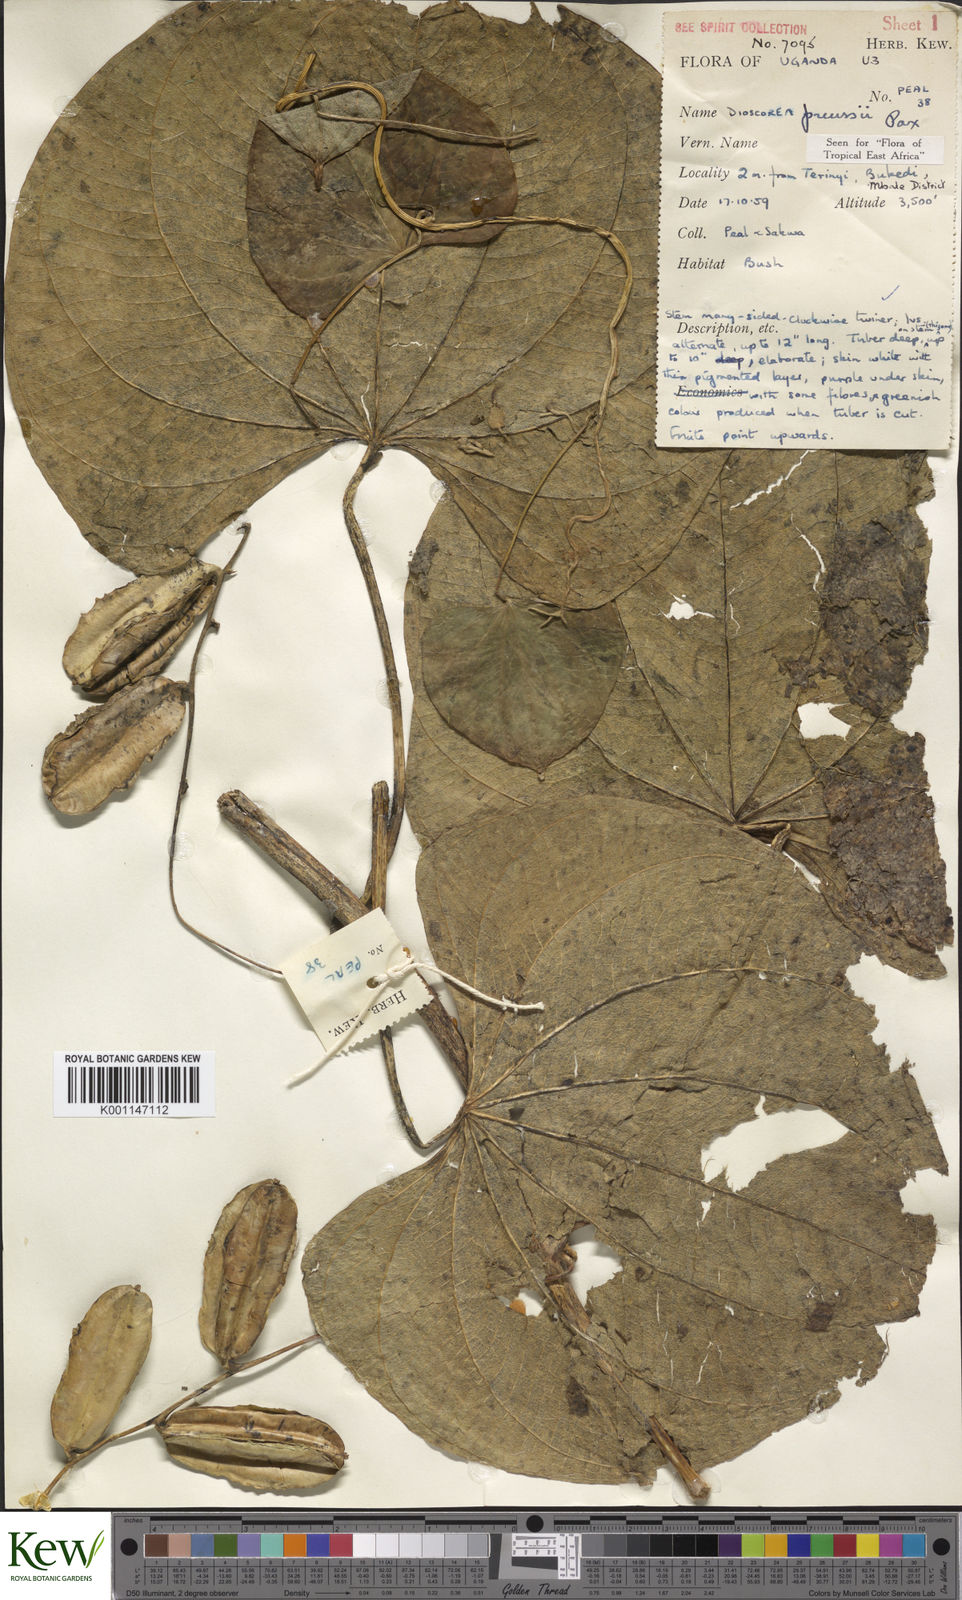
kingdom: Plantae
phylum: Tracheophyta
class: Liliopsida
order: Dioscoreales
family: Dioscoreaceae
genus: Dioscorea
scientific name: Dioscorea preussii
